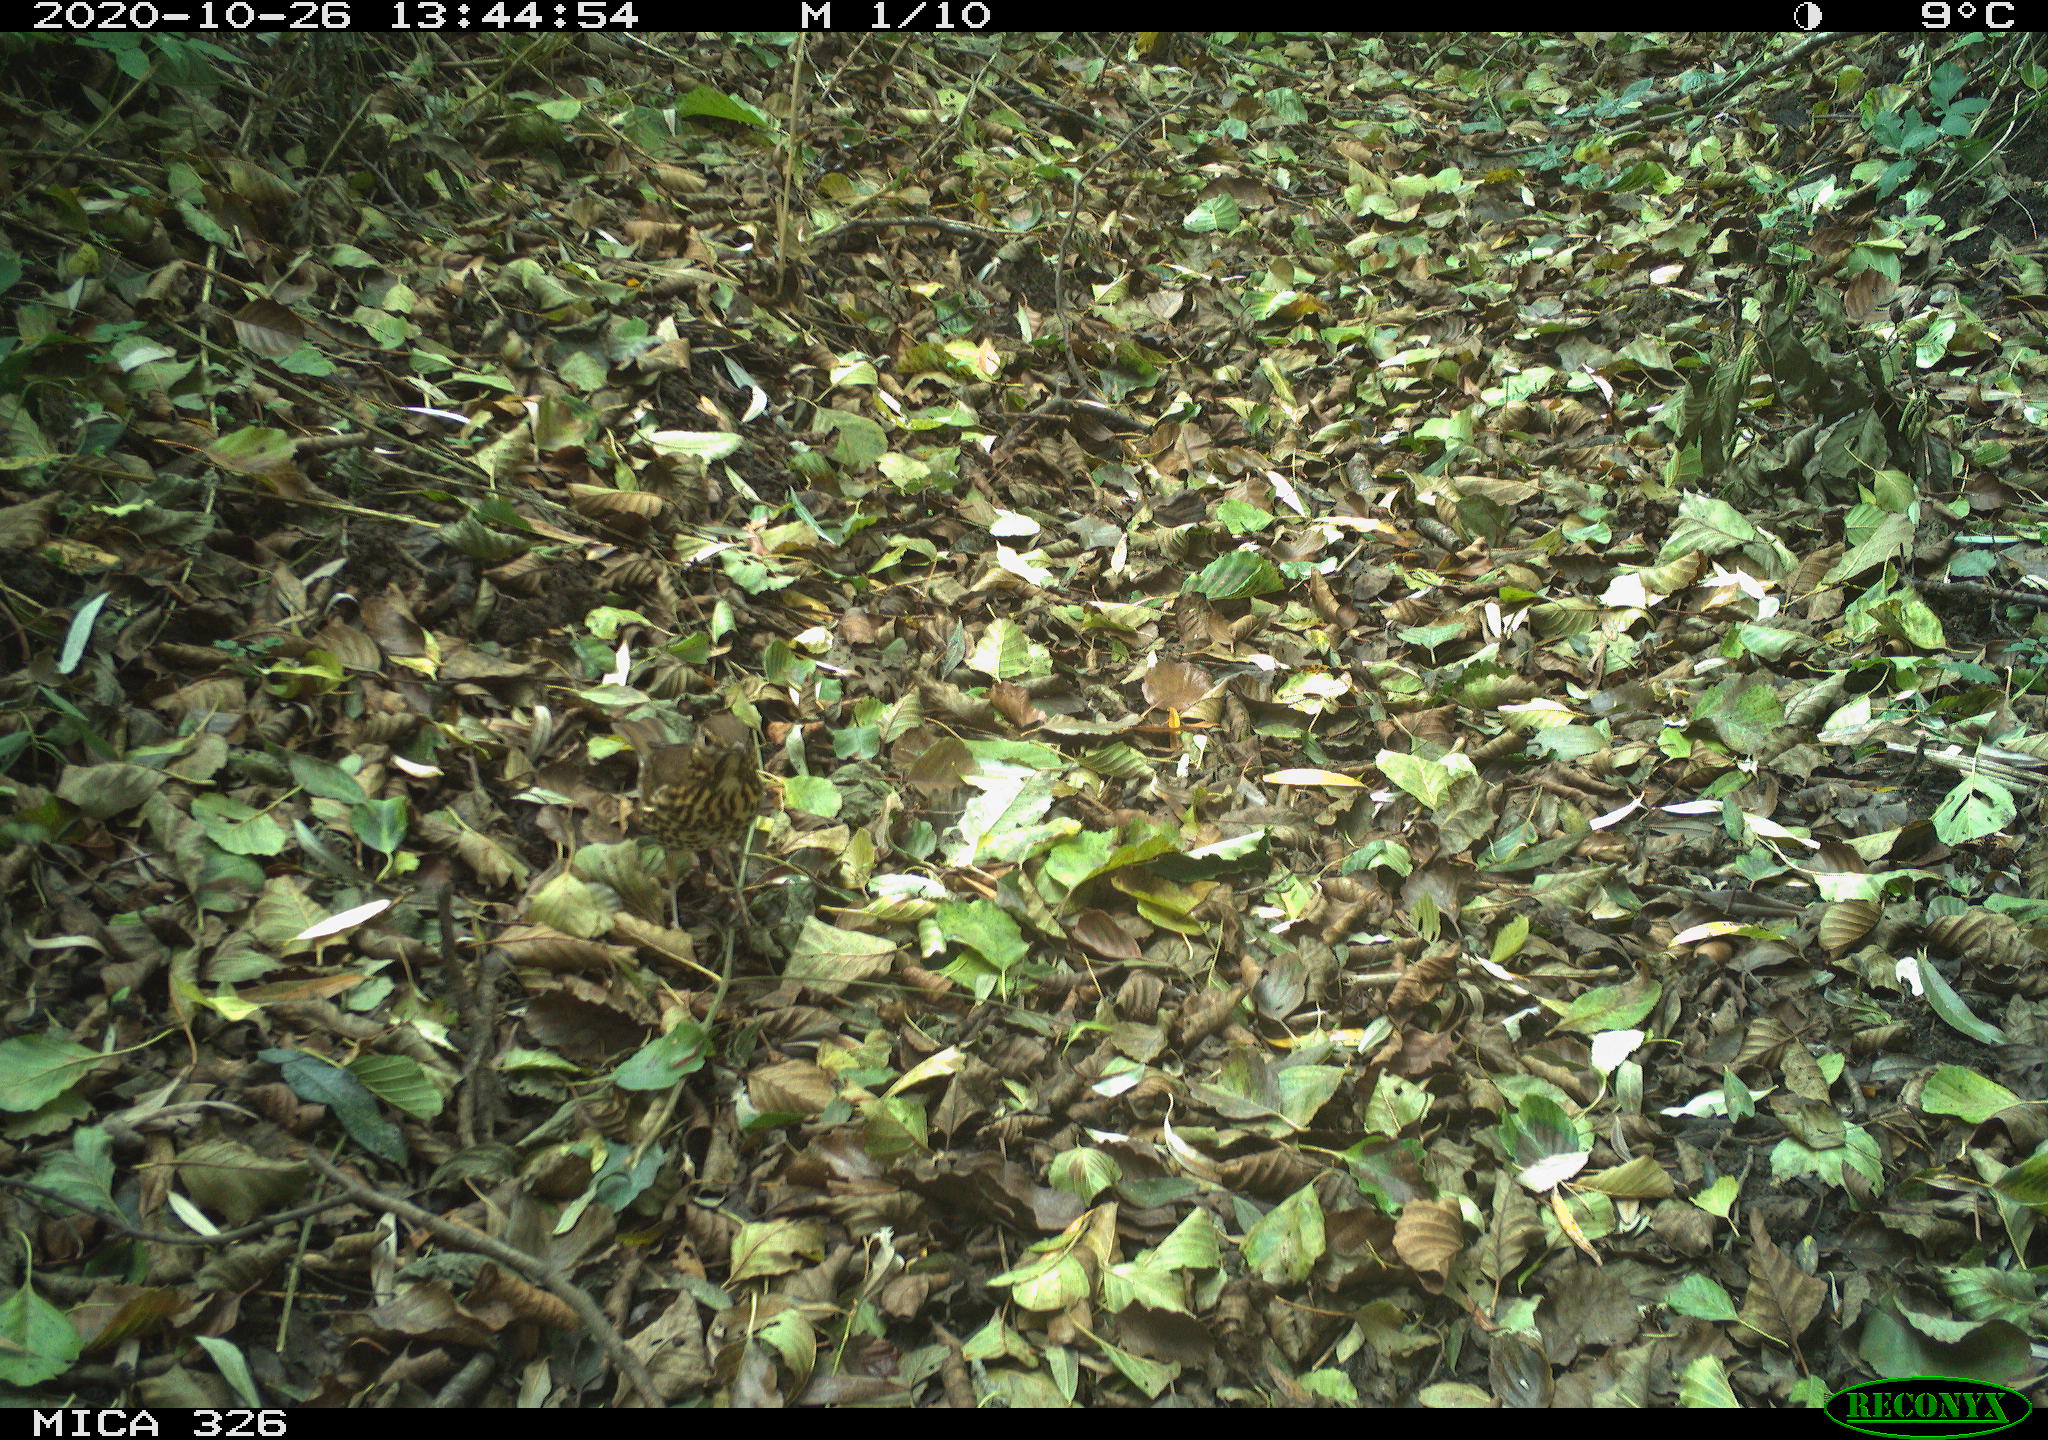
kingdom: Animalia
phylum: Chordata
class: Aves
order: Passeriformes
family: Turdidae
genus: Turdus
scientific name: Turdus philomelos
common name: Song thrush
